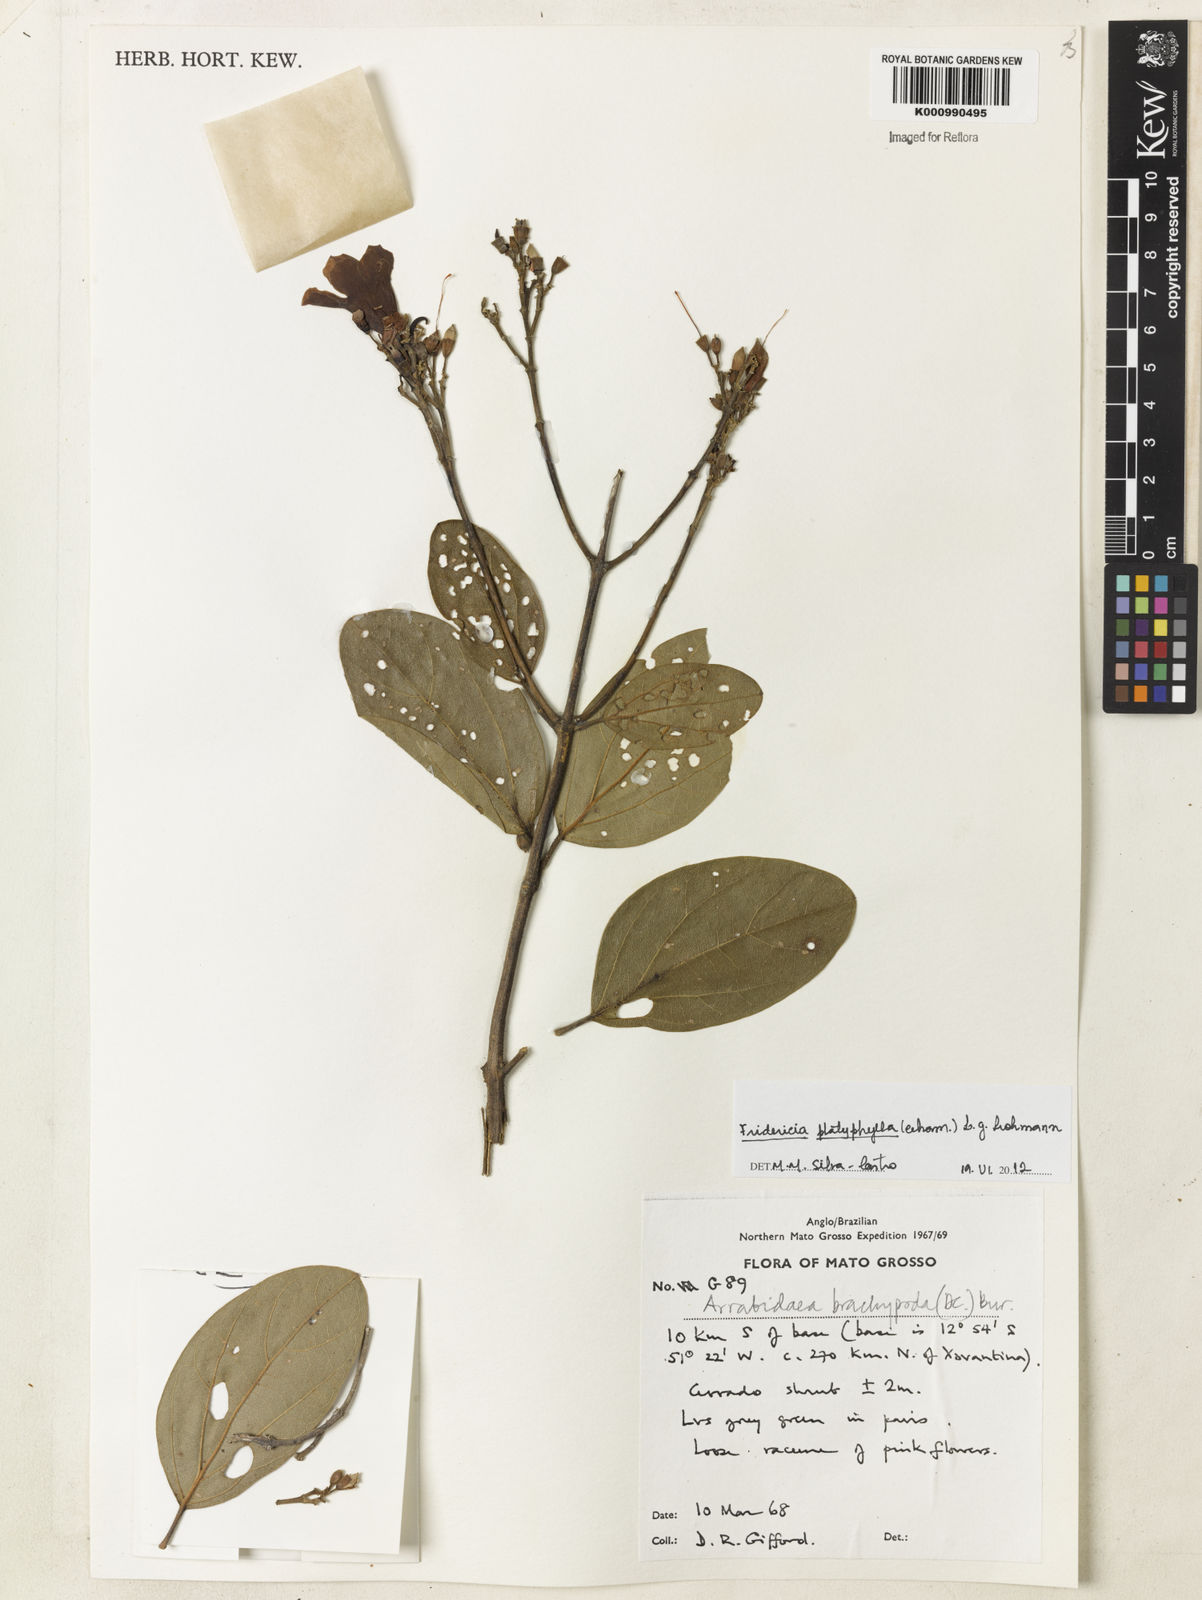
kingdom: Plantae
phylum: Tracheophyta
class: Magnoliopsida
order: Lamiales
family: Bignoniaceae
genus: Fridericia
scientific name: Fridericia platyphylla
